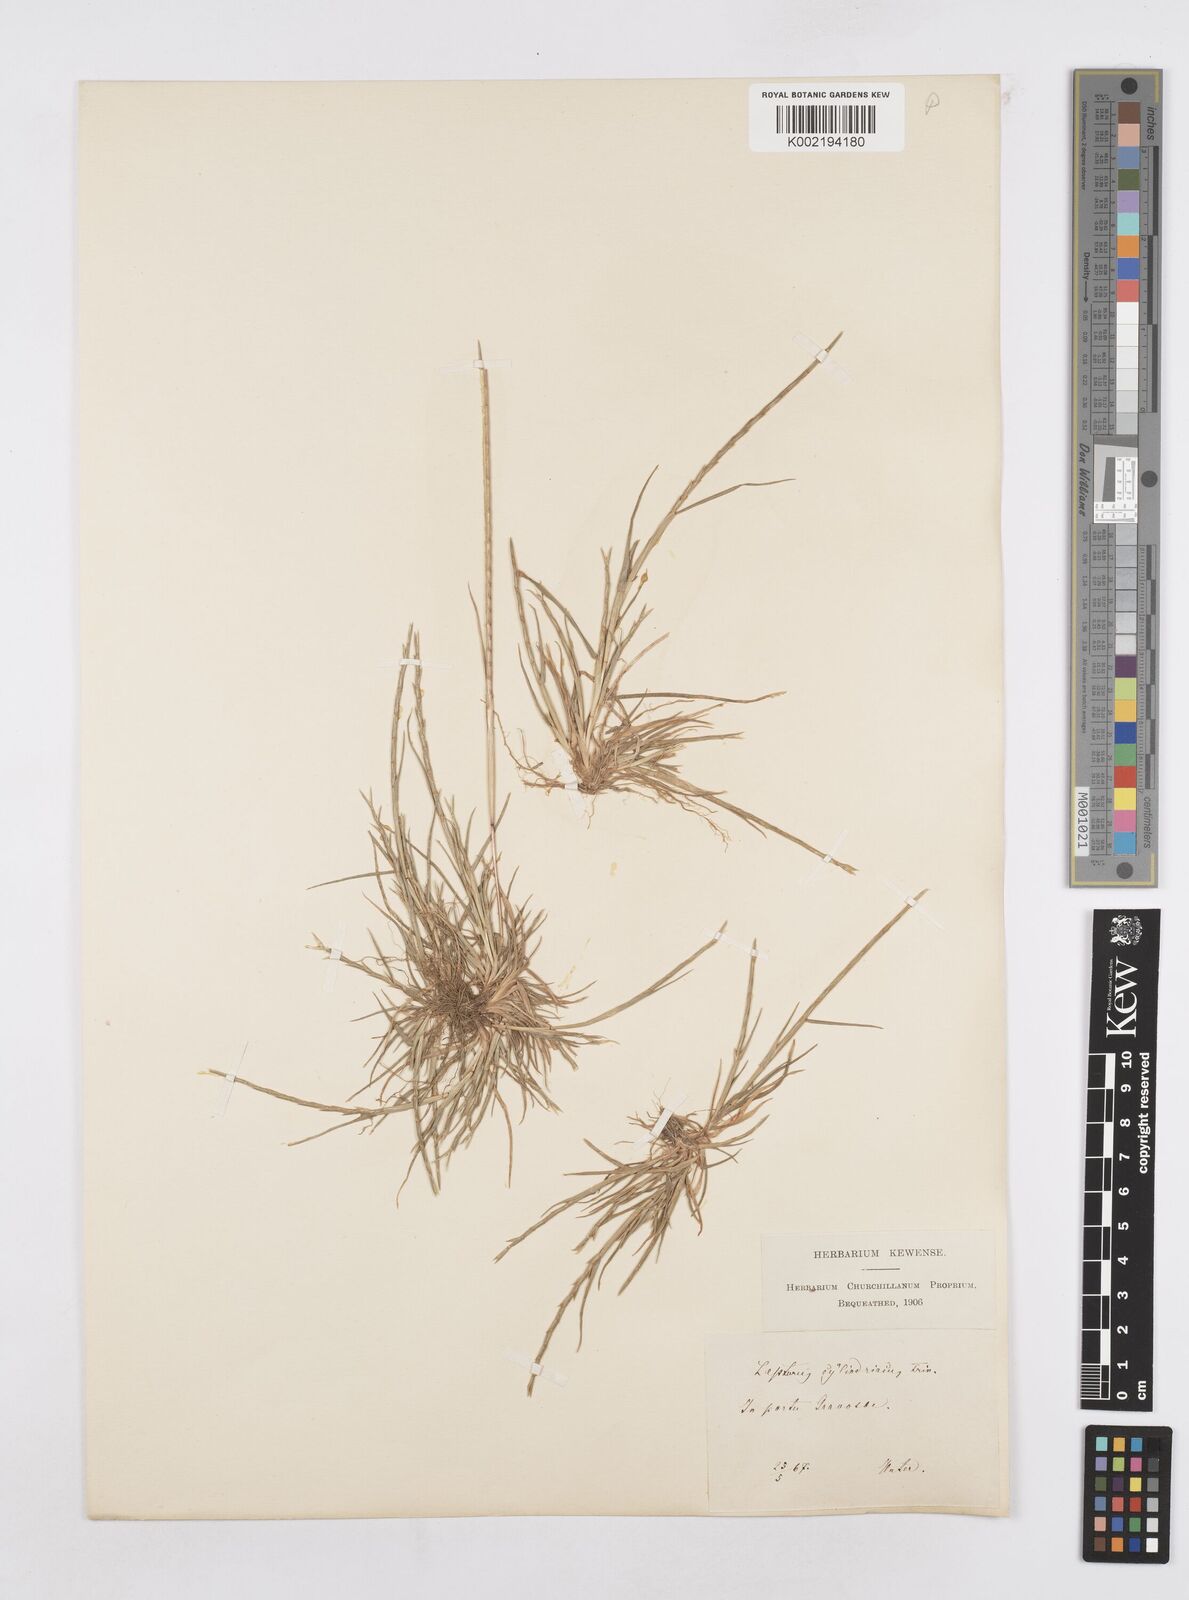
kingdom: Plantae
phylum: Tracheophyta
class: Liliopsida
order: Poales
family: Poaceae
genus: Parapholis
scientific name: Parapholis cylindrica
